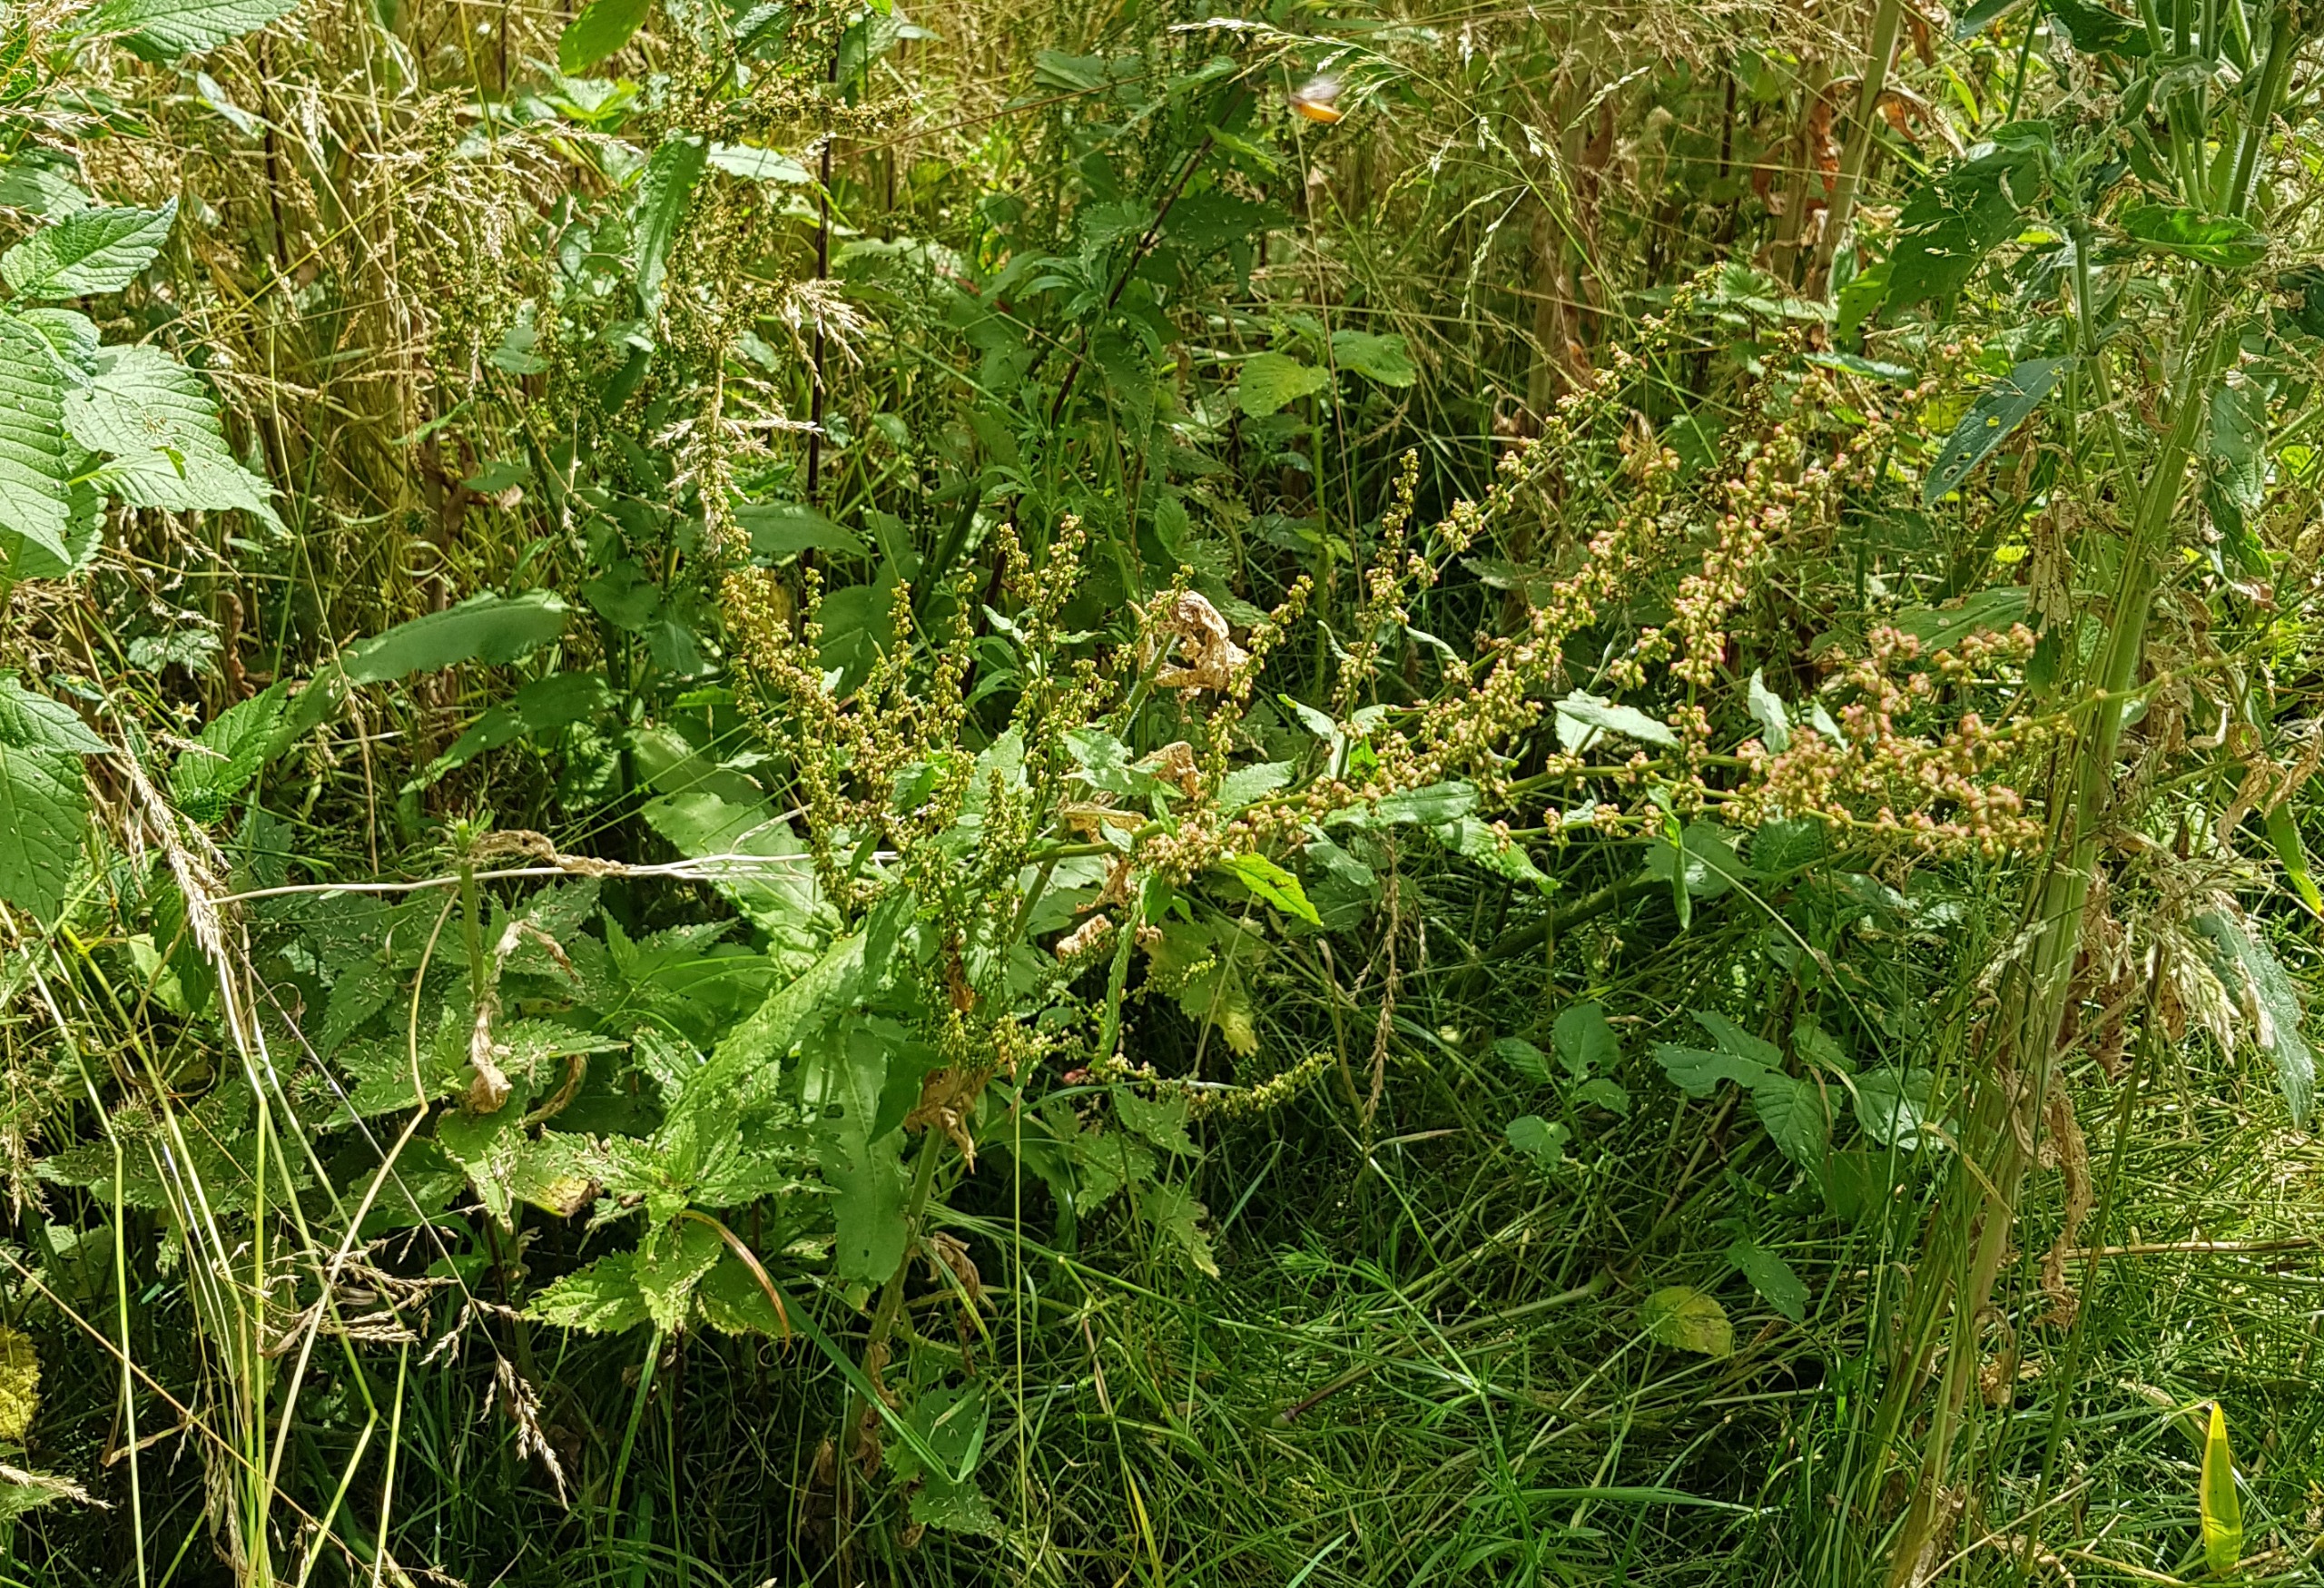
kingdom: Plantae
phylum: Tracheophyta
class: Magnoliopsida
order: Caryophyllales
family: Polygonaceae
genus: Rumex
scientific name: Rumex sanguineus
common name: Skov-skræppe
